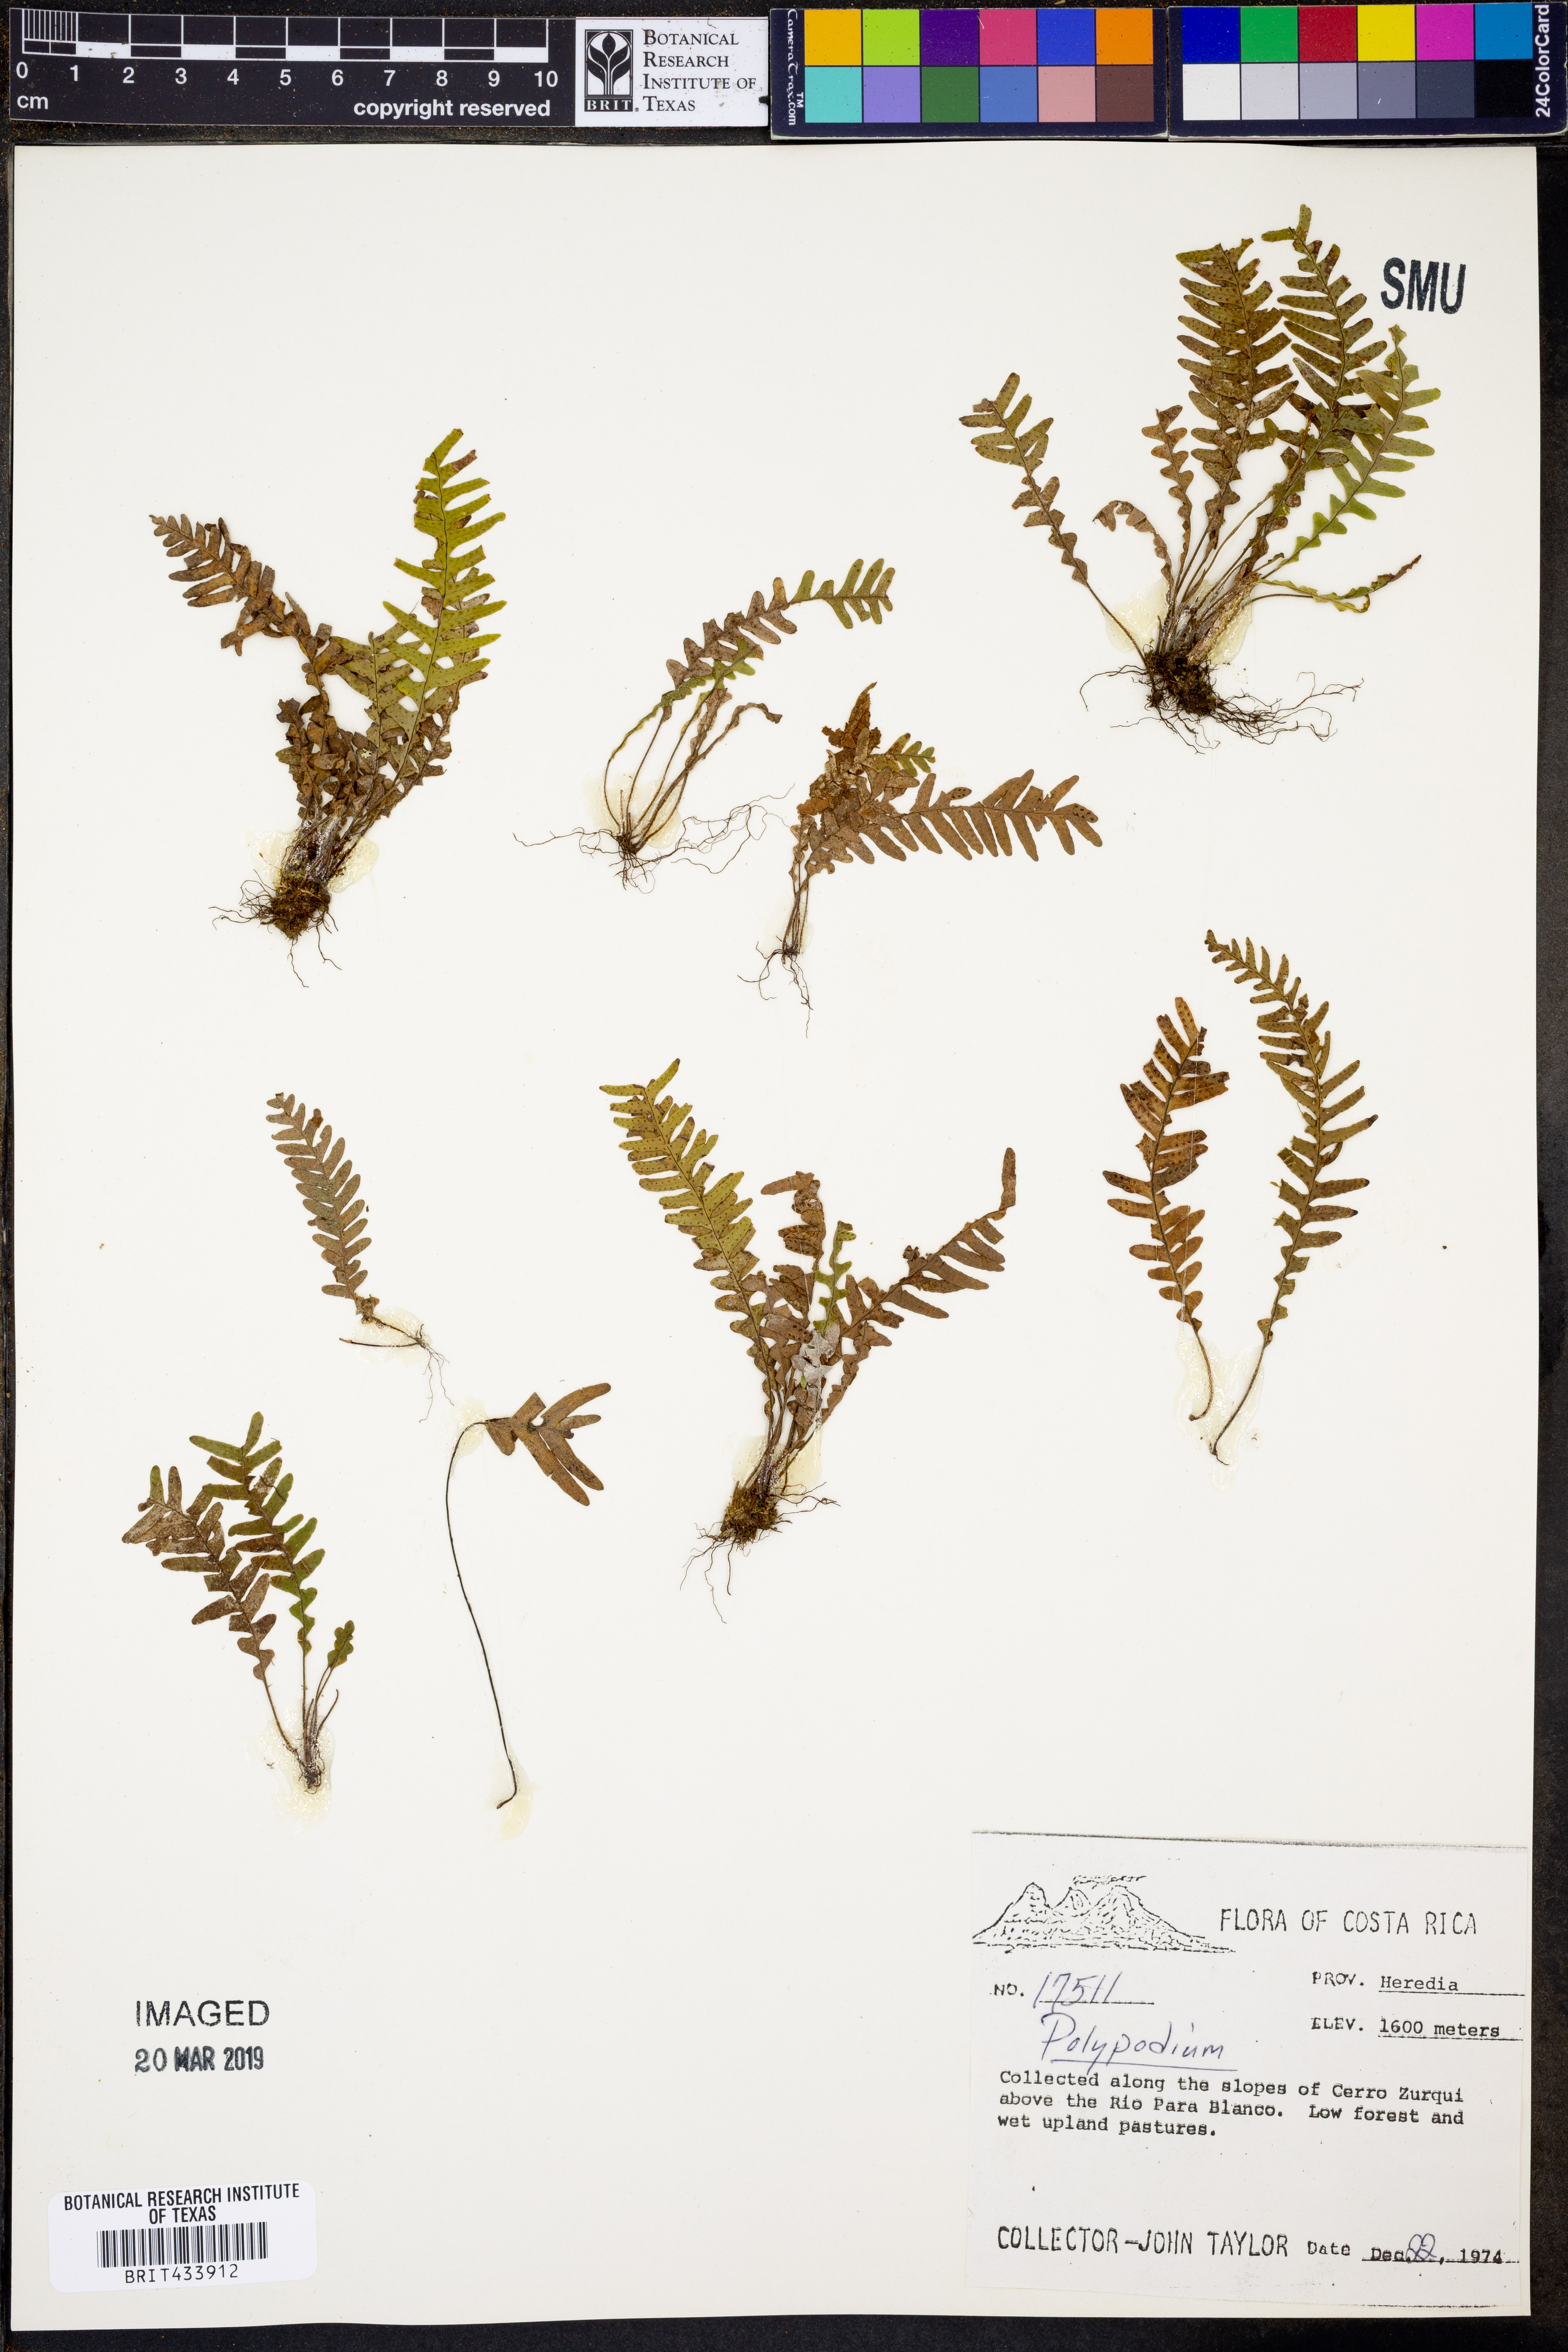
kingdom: Plantae
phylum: Tracheophyta
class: Polypodiopsida
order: Polypodiales
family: Polypodiaceae
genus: Polypodium
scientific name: Polypodium
